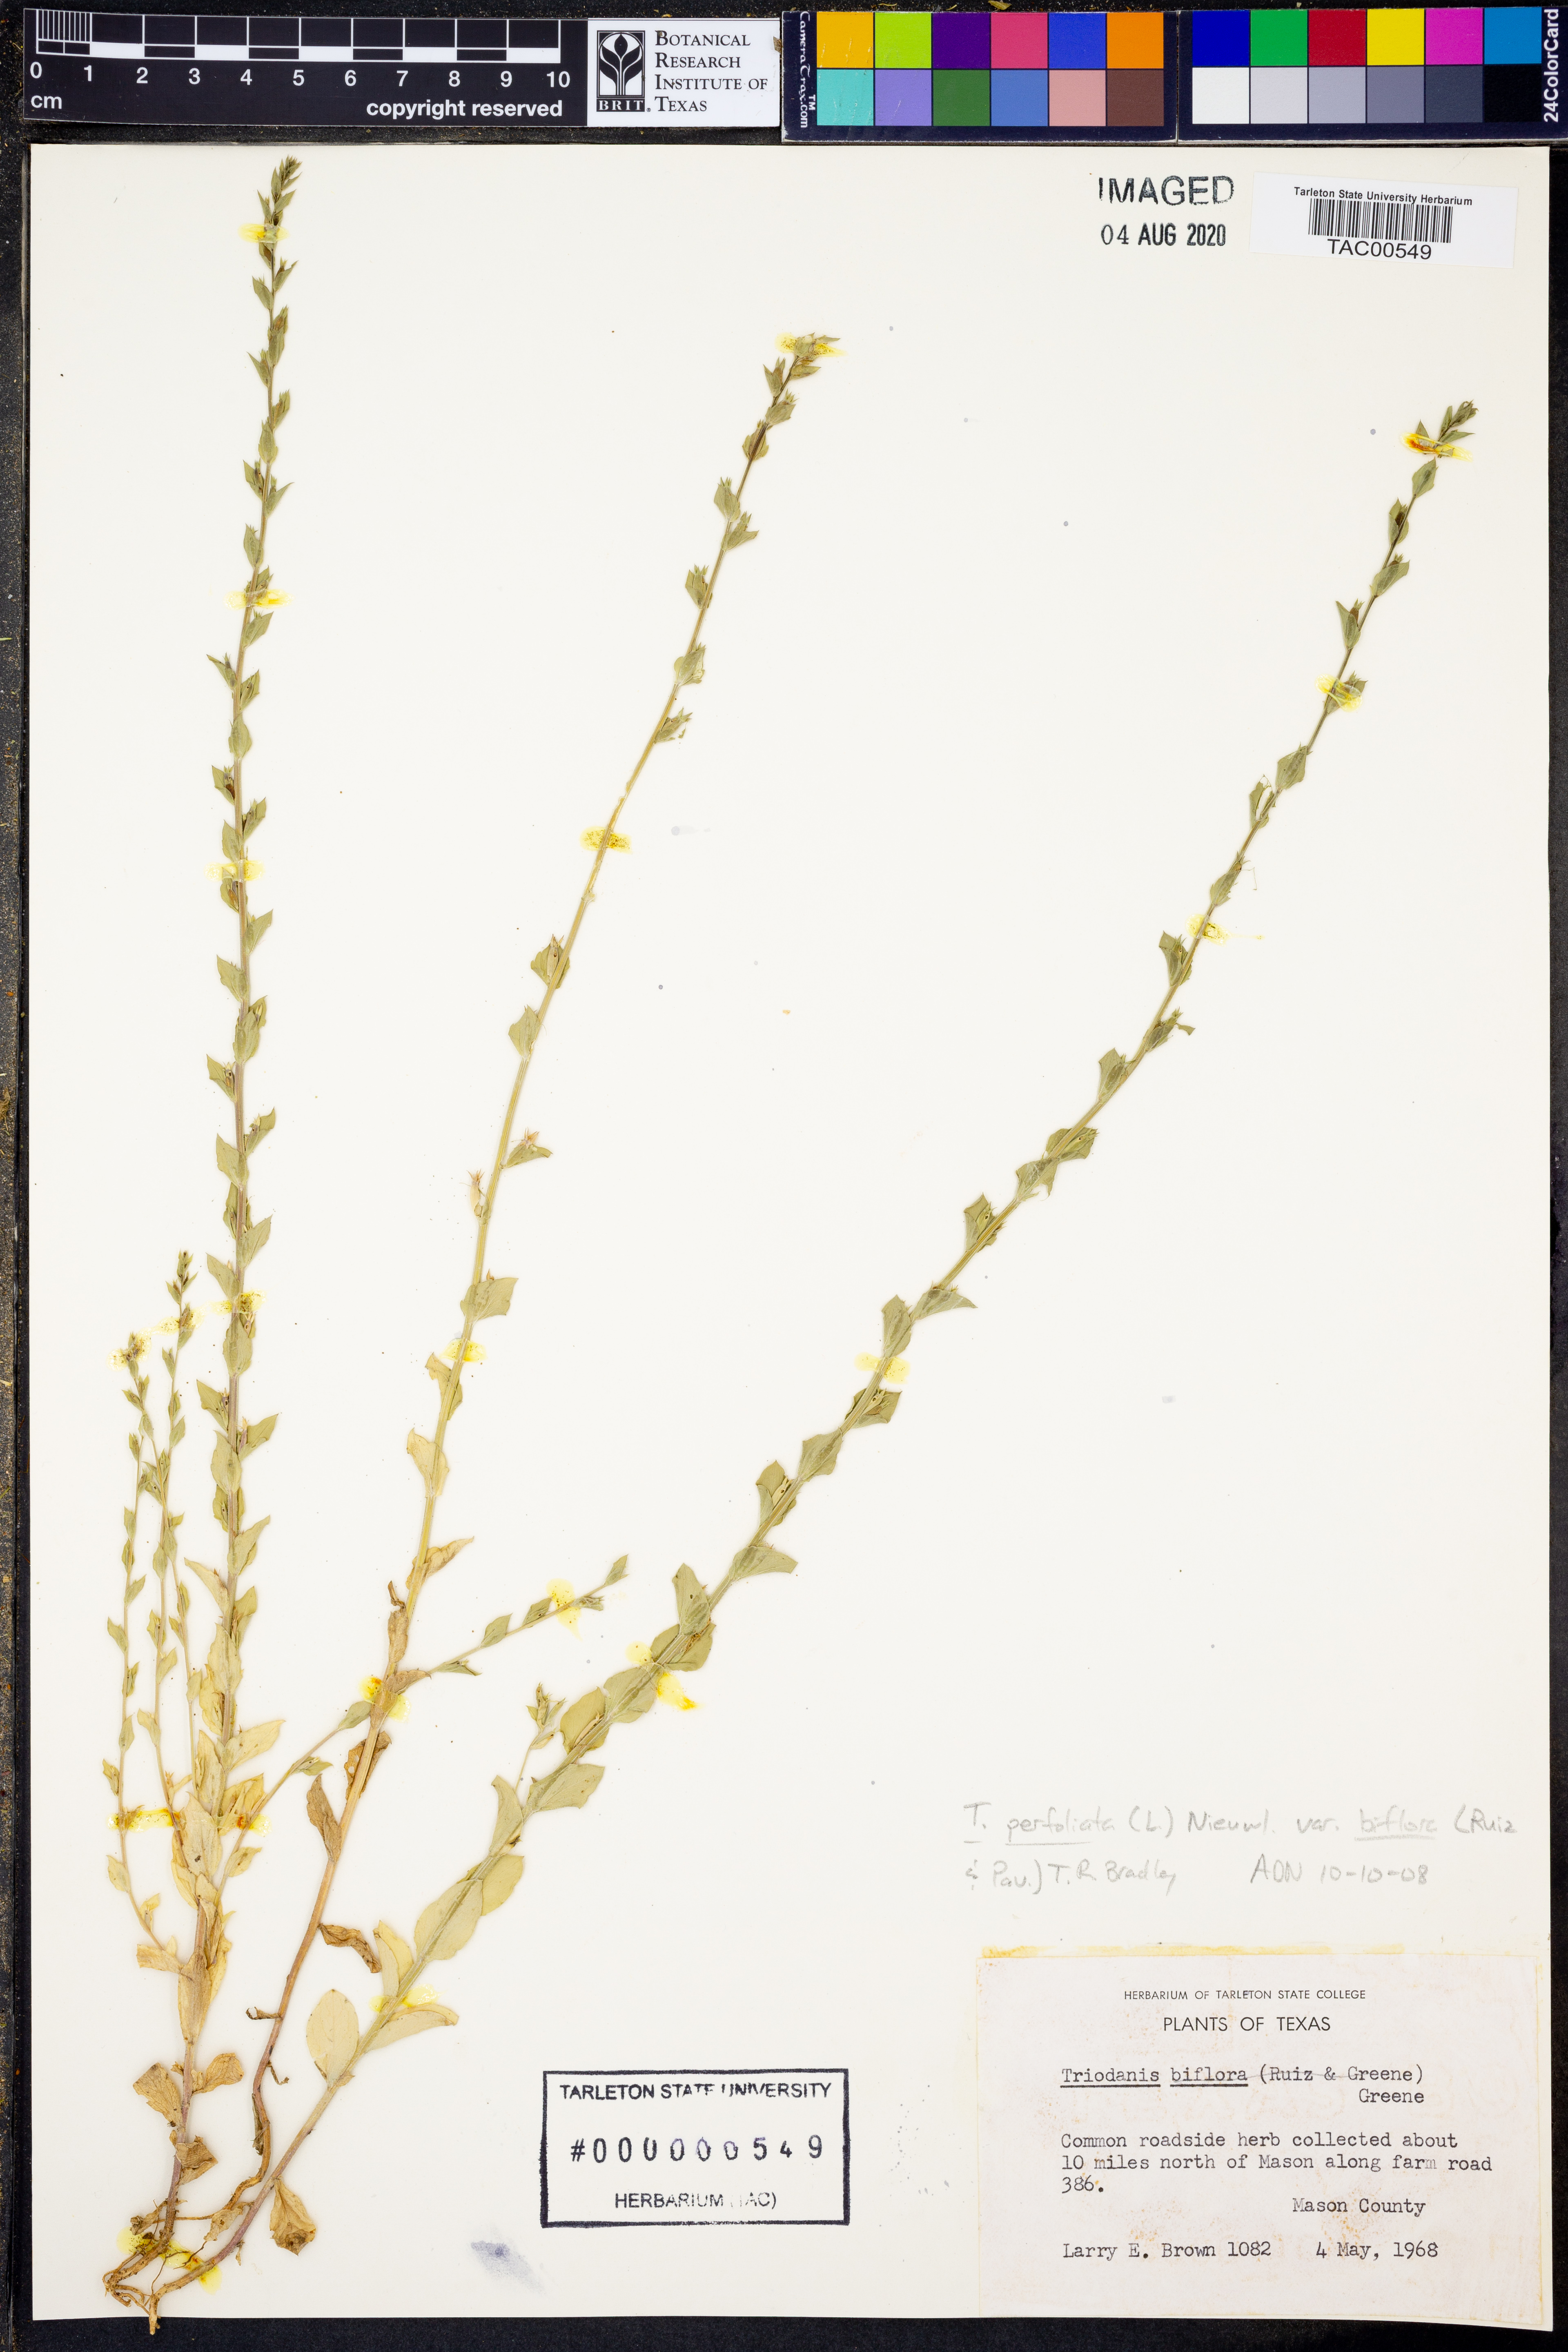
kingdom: Plantae
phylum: Tracheophyta
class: Magnoliopsida
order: Asterales
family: Campanulaceae
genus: Triodanis
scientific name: Triodanis perfoliata
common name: Clasping venus' looking-glass
